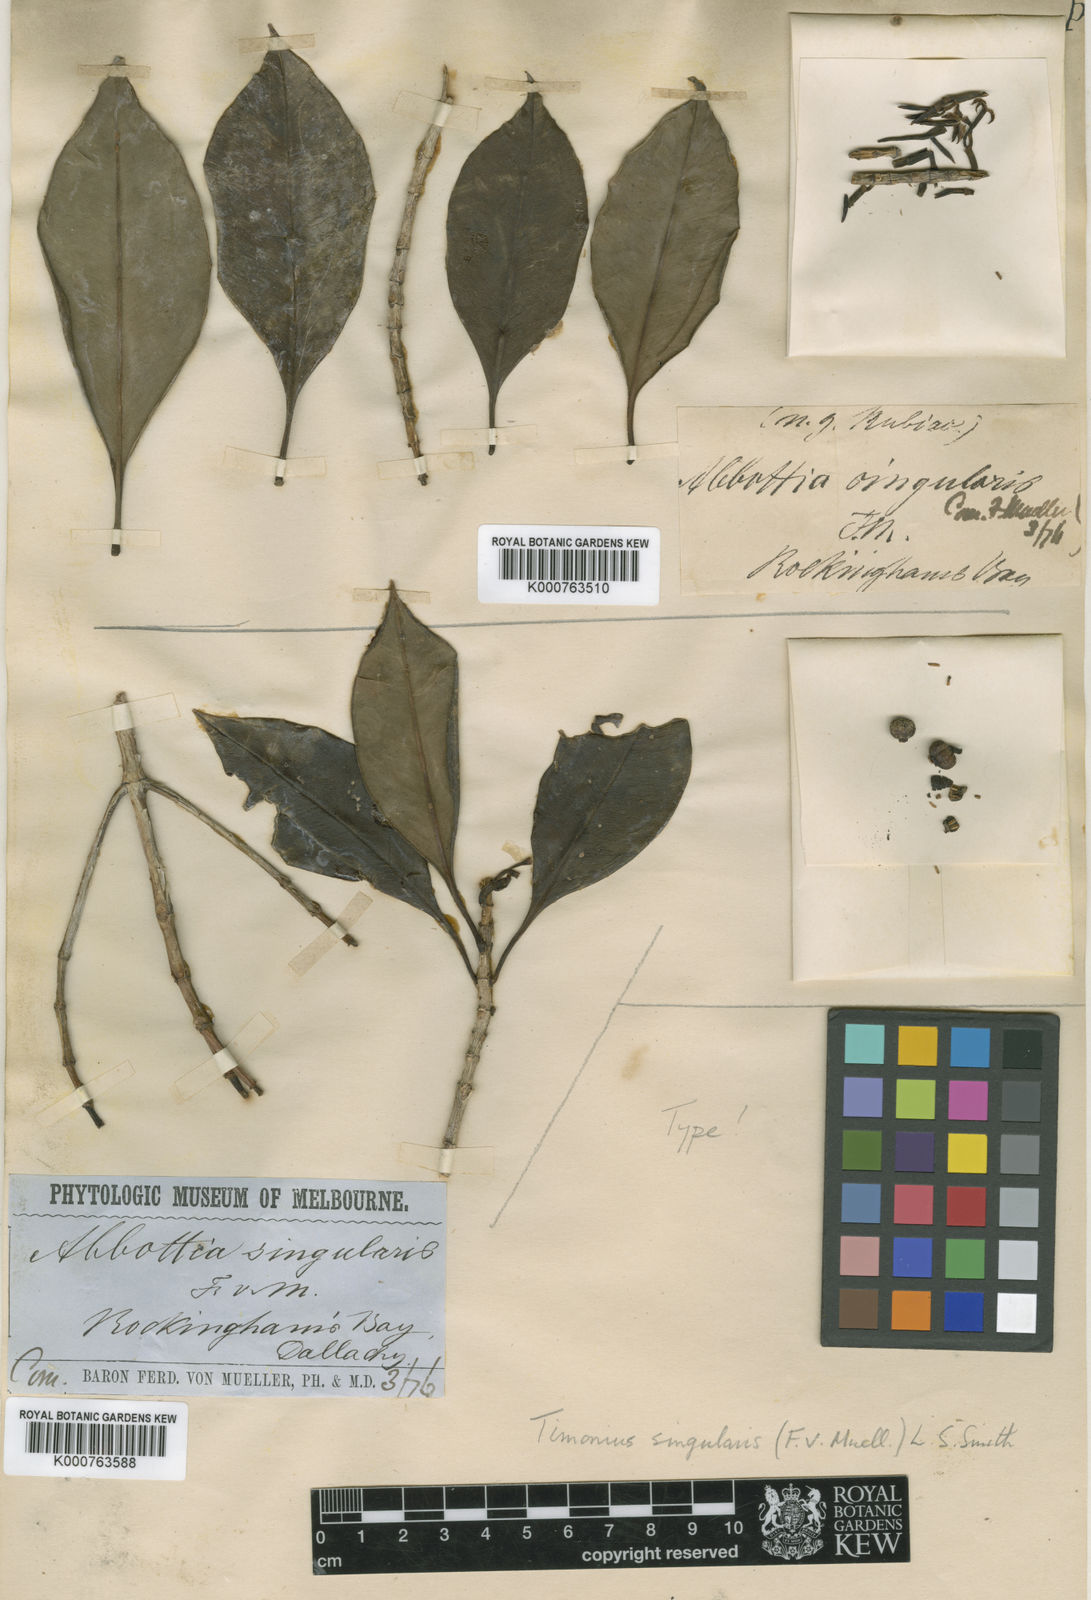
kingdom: Plantae
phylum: Tracheophyta
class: Magnoliopsida
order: Gentianales
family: Rubiaceae
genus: Timonius
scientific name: Timonius singularis
